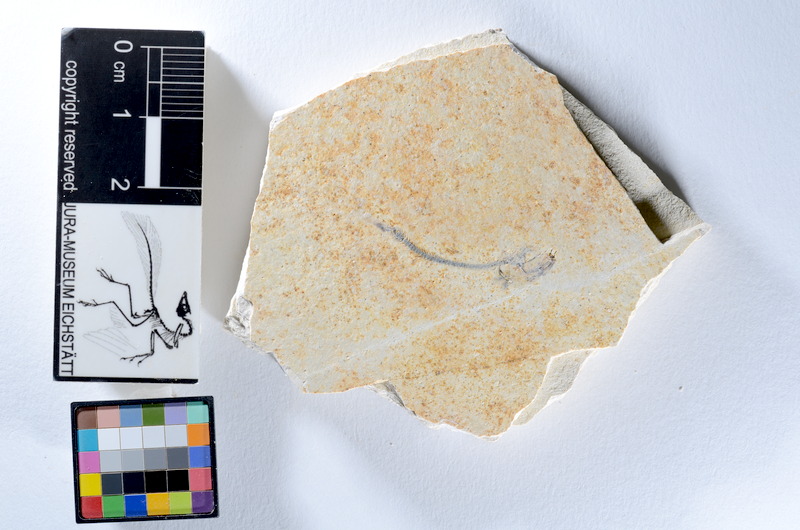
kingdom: Animalia
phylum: Chordata
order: Salmoniformes
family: Orthogonikleithridae
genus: Orthogonikleithrus
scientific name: Orthogonikleithrus hoelli
